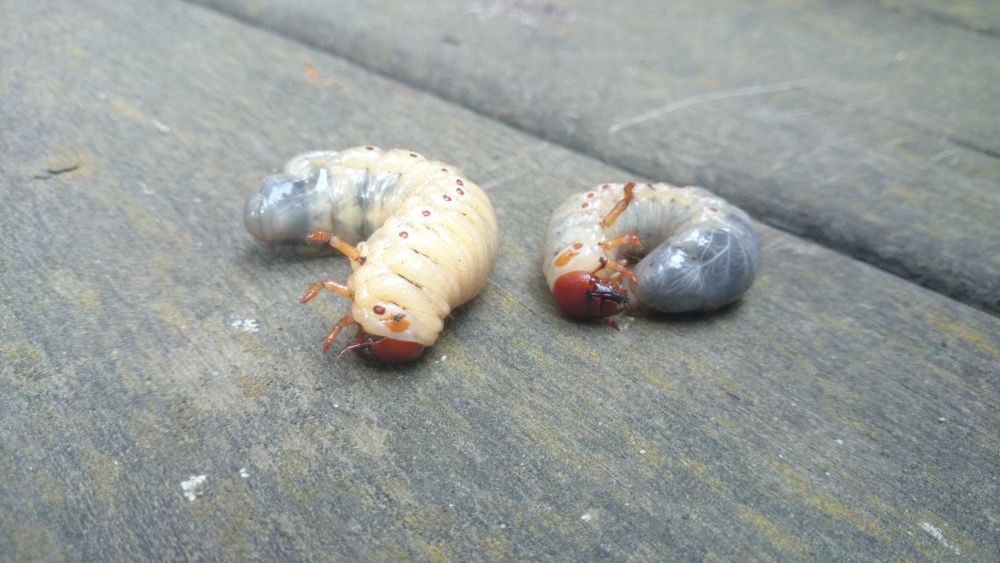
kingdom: Animalia
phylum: Arthropoda
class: Insecta
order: Coleoptera
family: Scarabaeidae
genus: Oryctes
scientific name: Oryctes nasicornis
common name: European rhinoceros beetle
